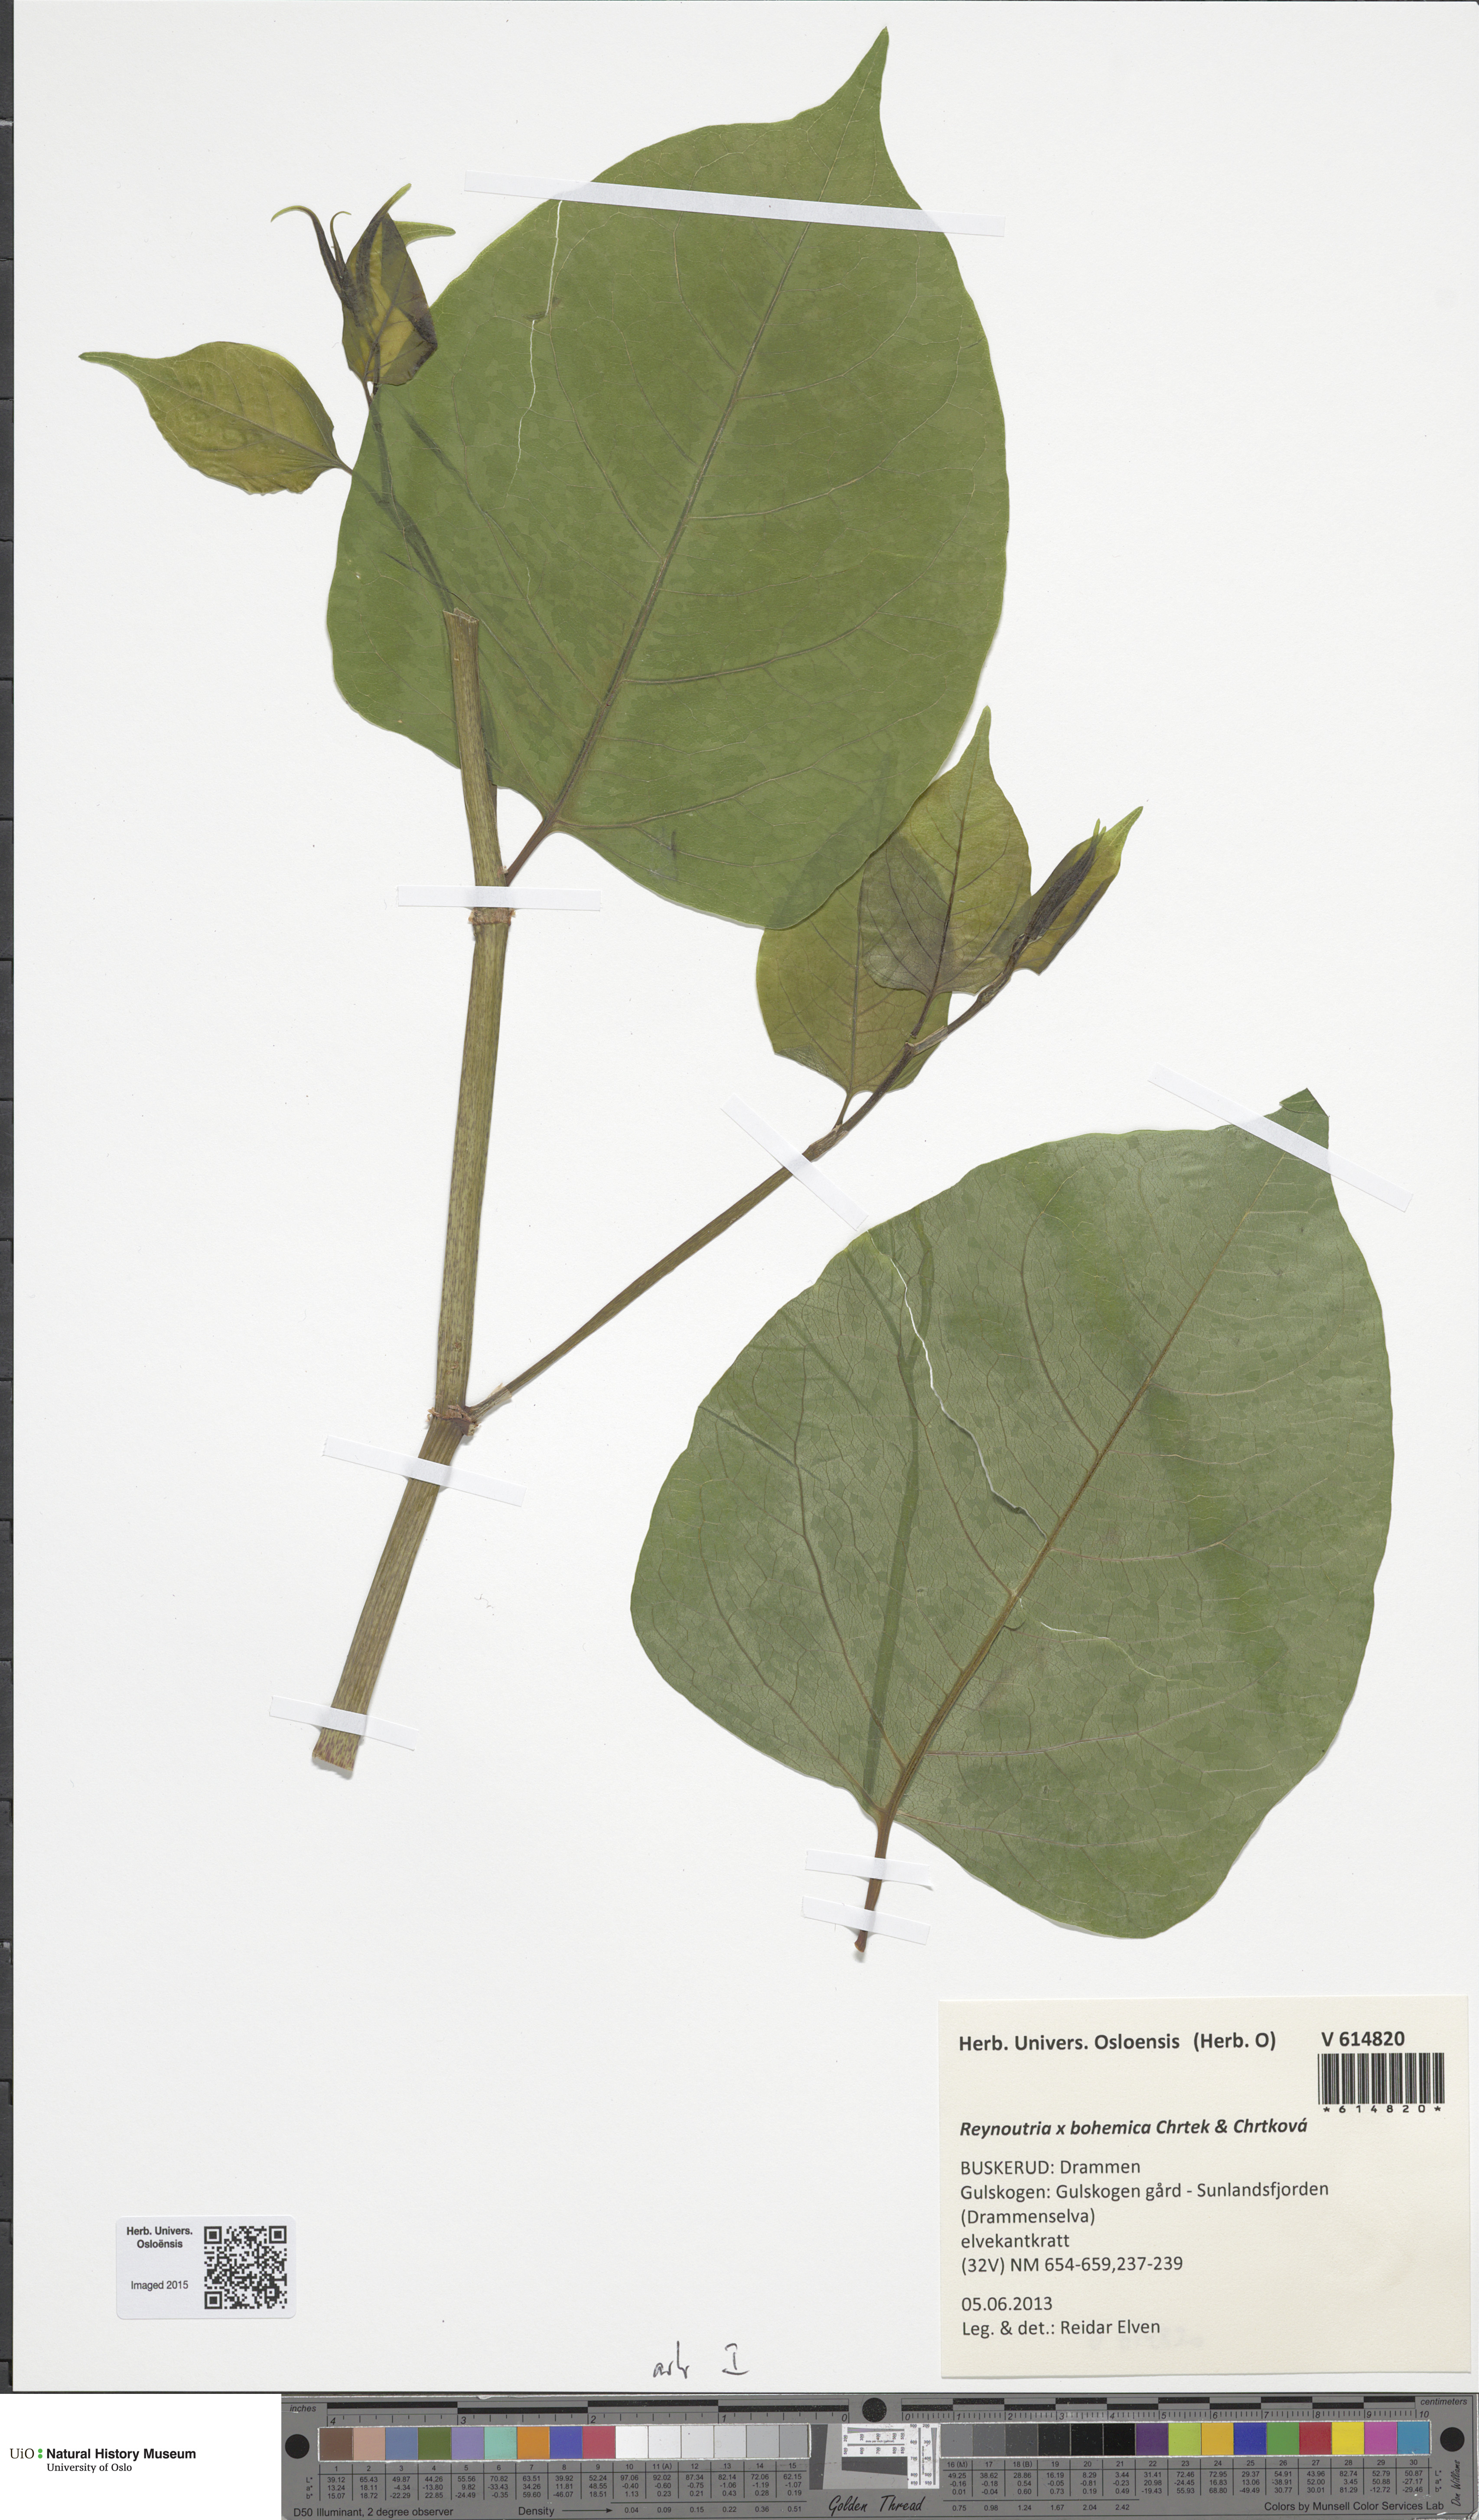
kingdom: Plantae
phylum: Tracheophyta
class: Magnoliopsida
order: Caryophyllales
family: Polygonaceae
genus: Reynoutria
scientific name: Reynoutria bohemica
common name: Bohemian knotweed
